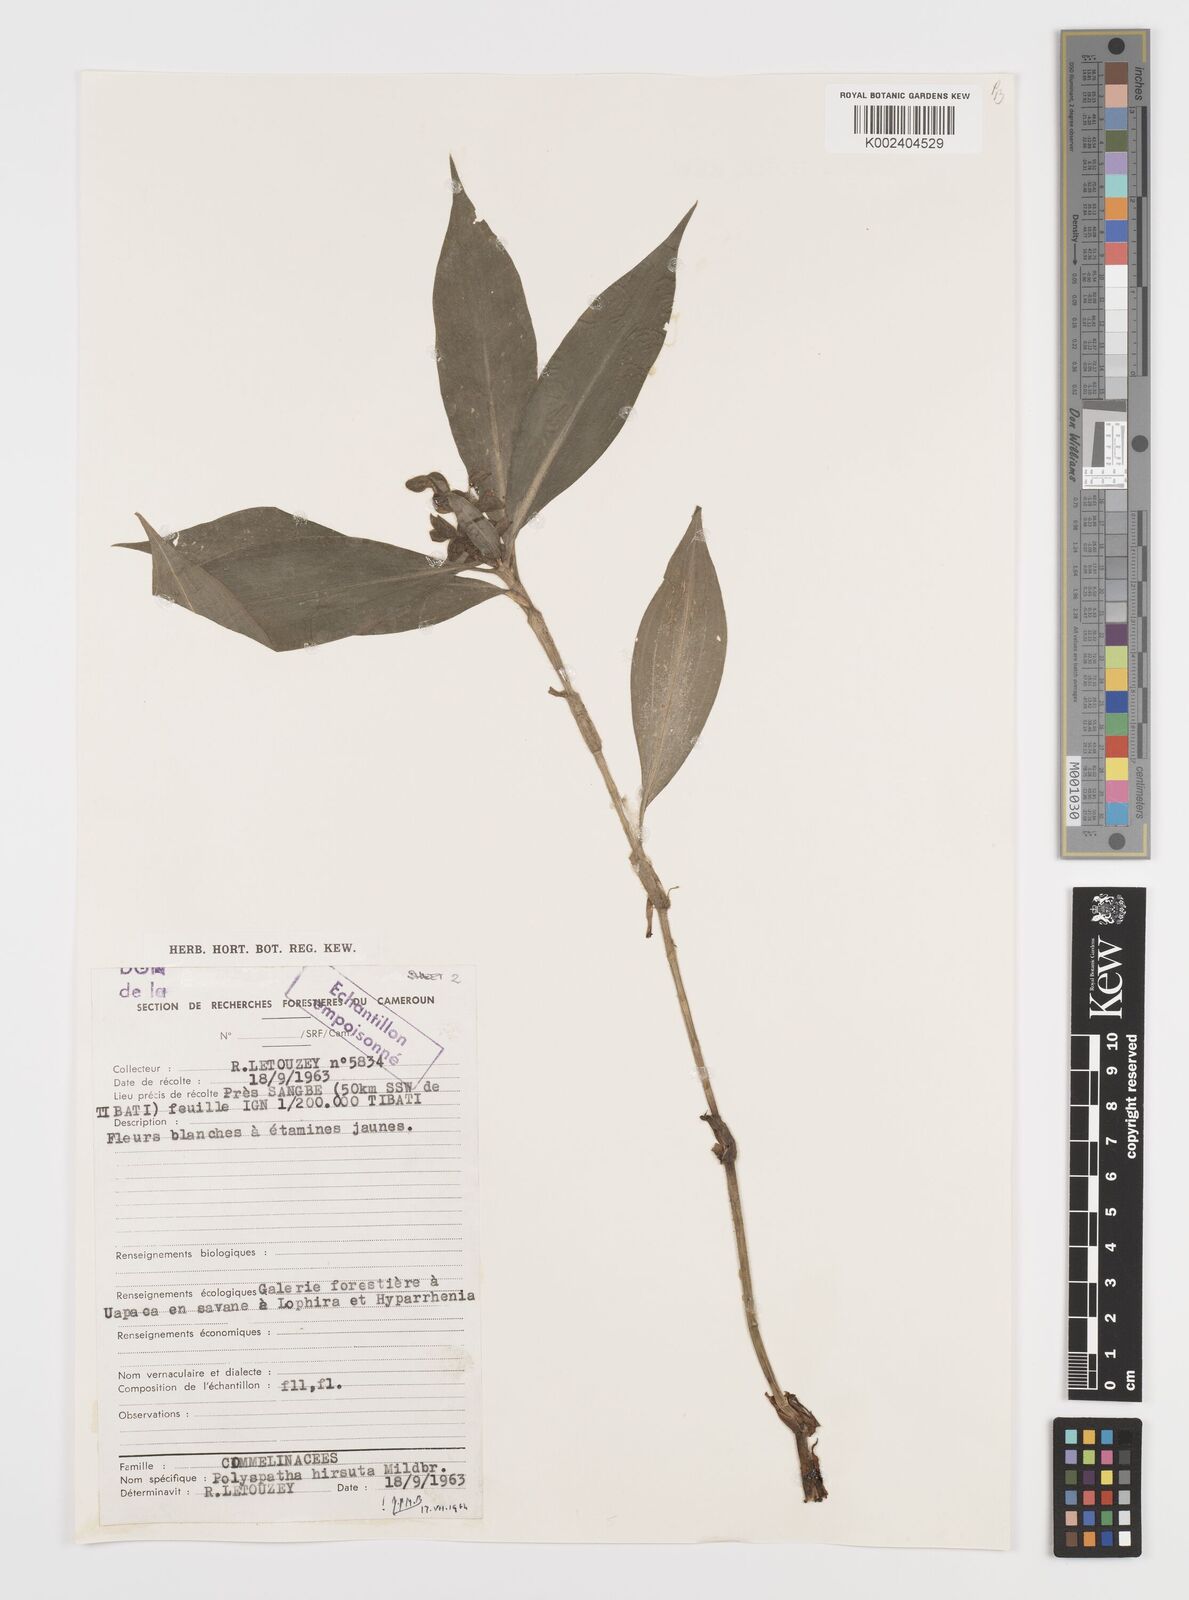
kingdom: Plantae
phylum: Tracheophyta
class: Liliopsida
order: Commelinales
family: Commelinaceae
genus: Polyspatha
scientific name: Polyspatha hirsuta
